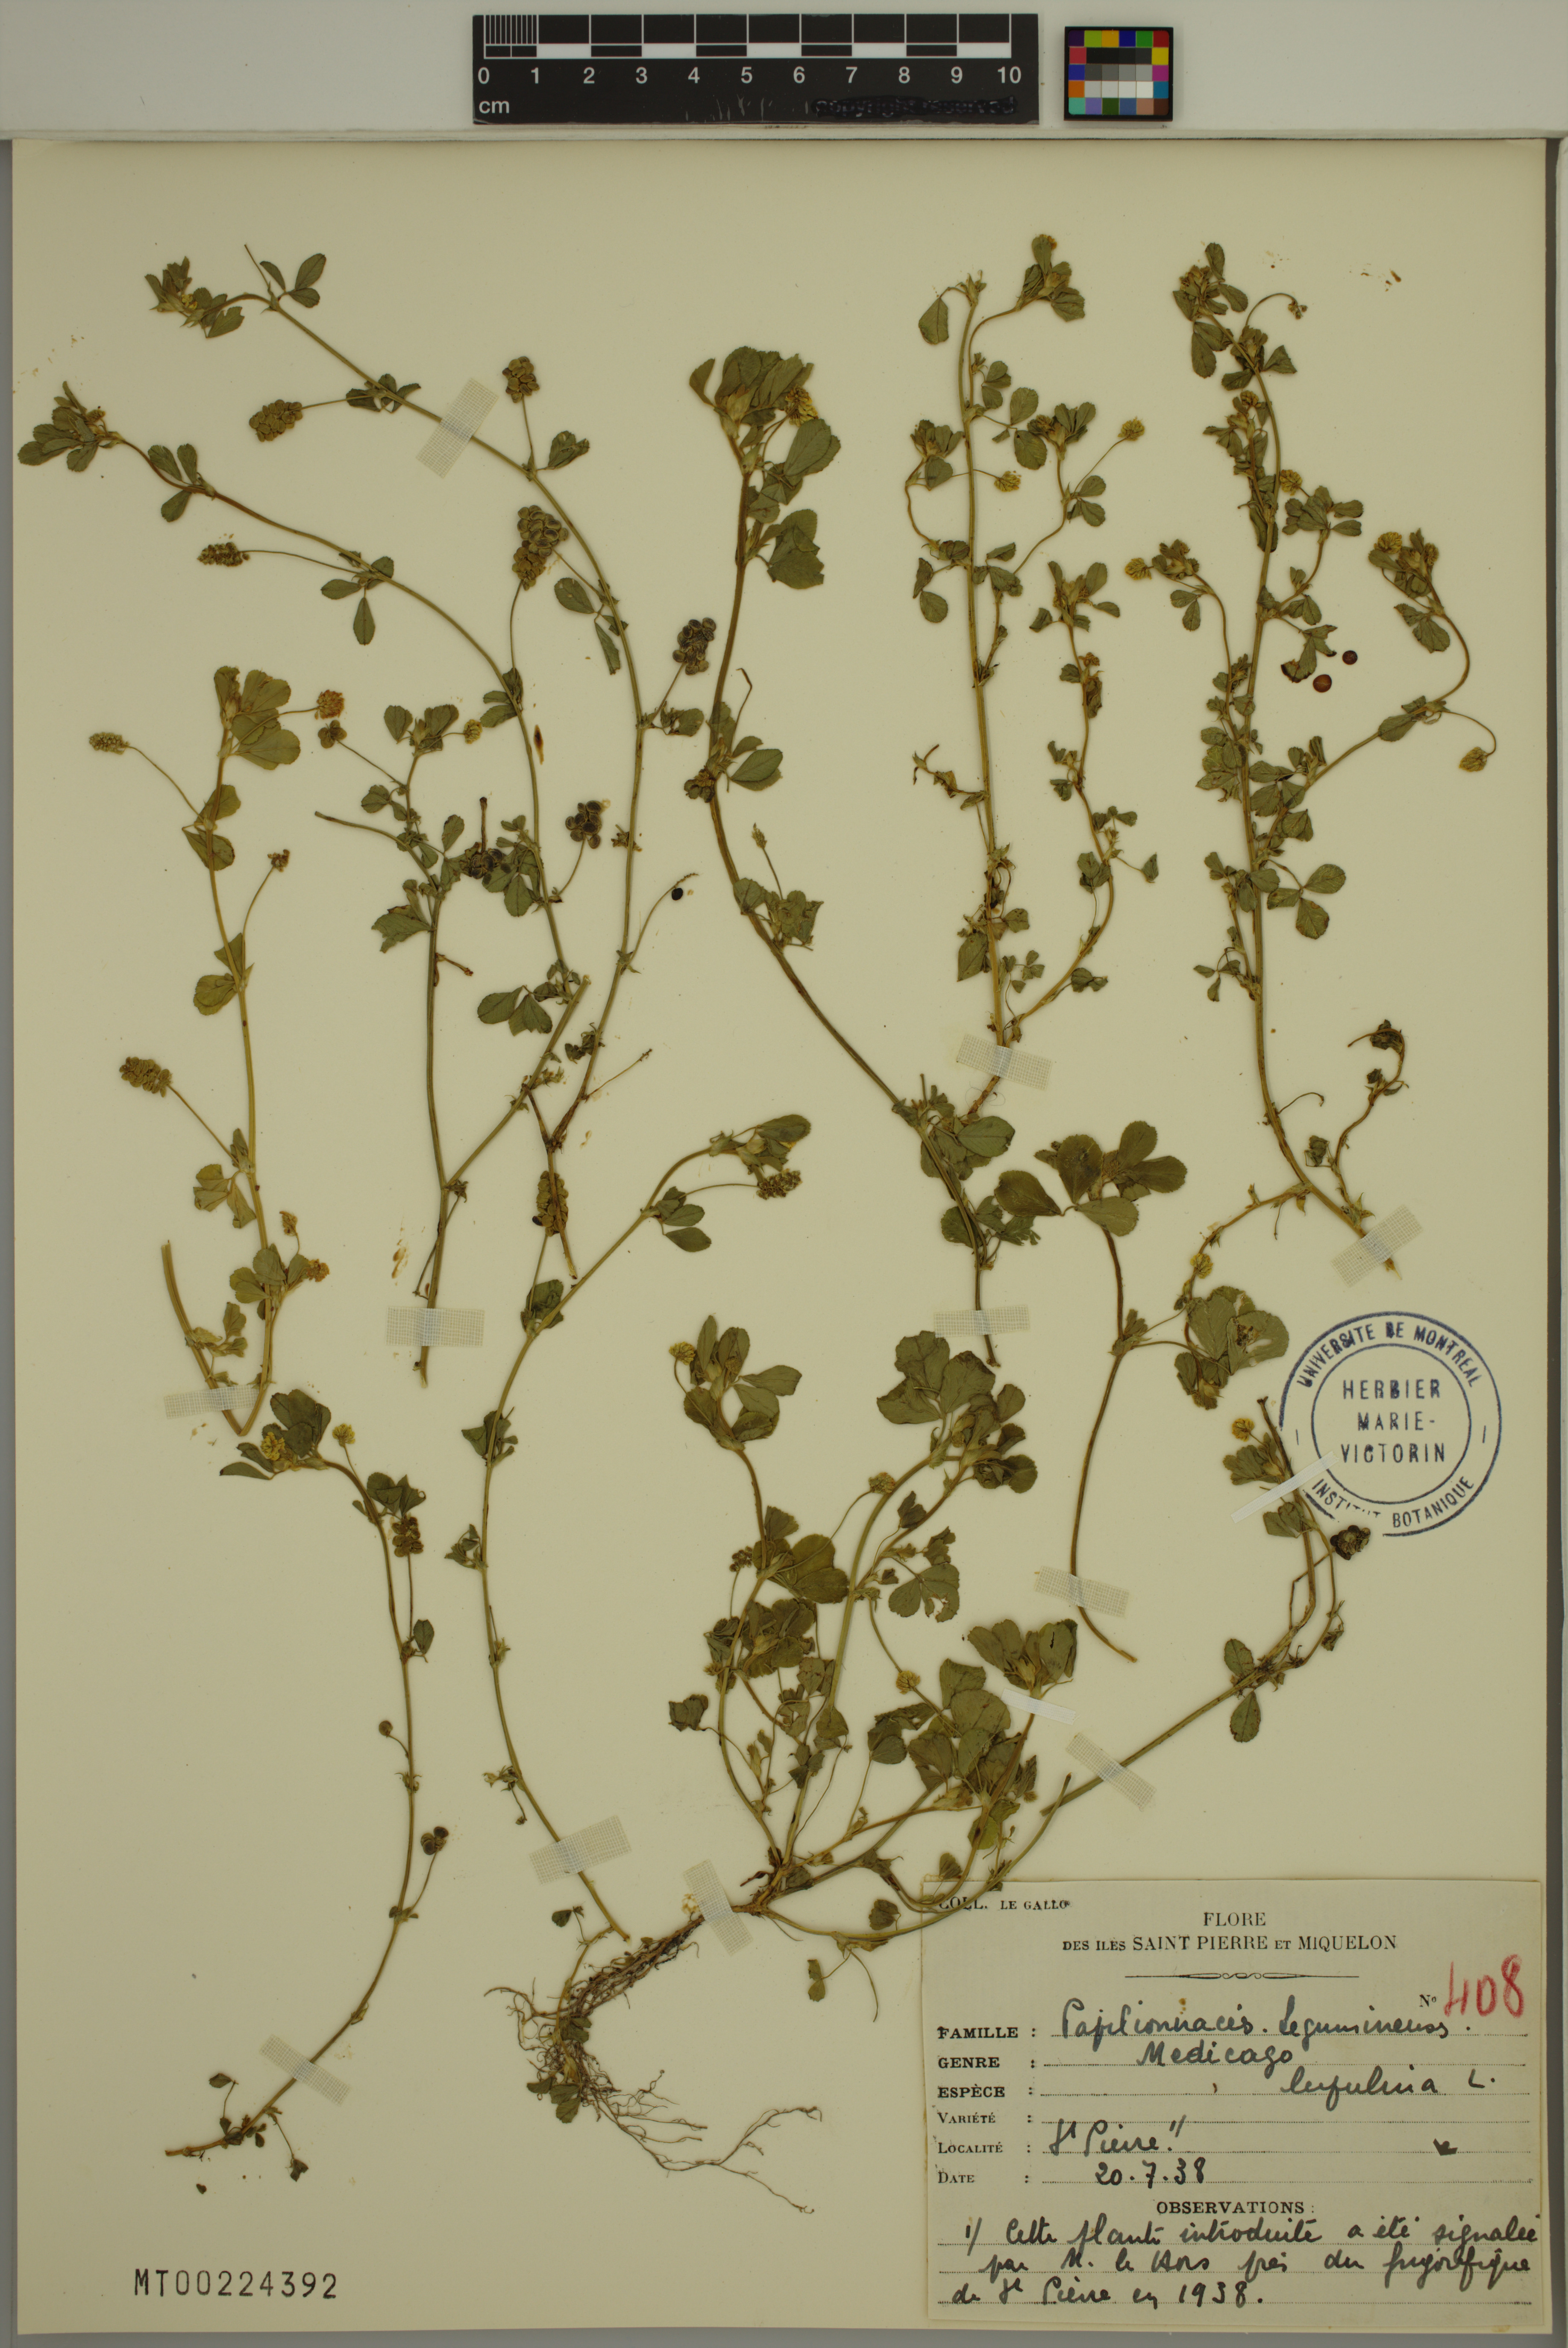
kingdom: Plantae
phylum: Tracheophyta
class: Magnoliopsida
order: Fabales
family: Fabaceae
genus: Medicago
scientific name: Medicago lupulina
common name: Black medick
